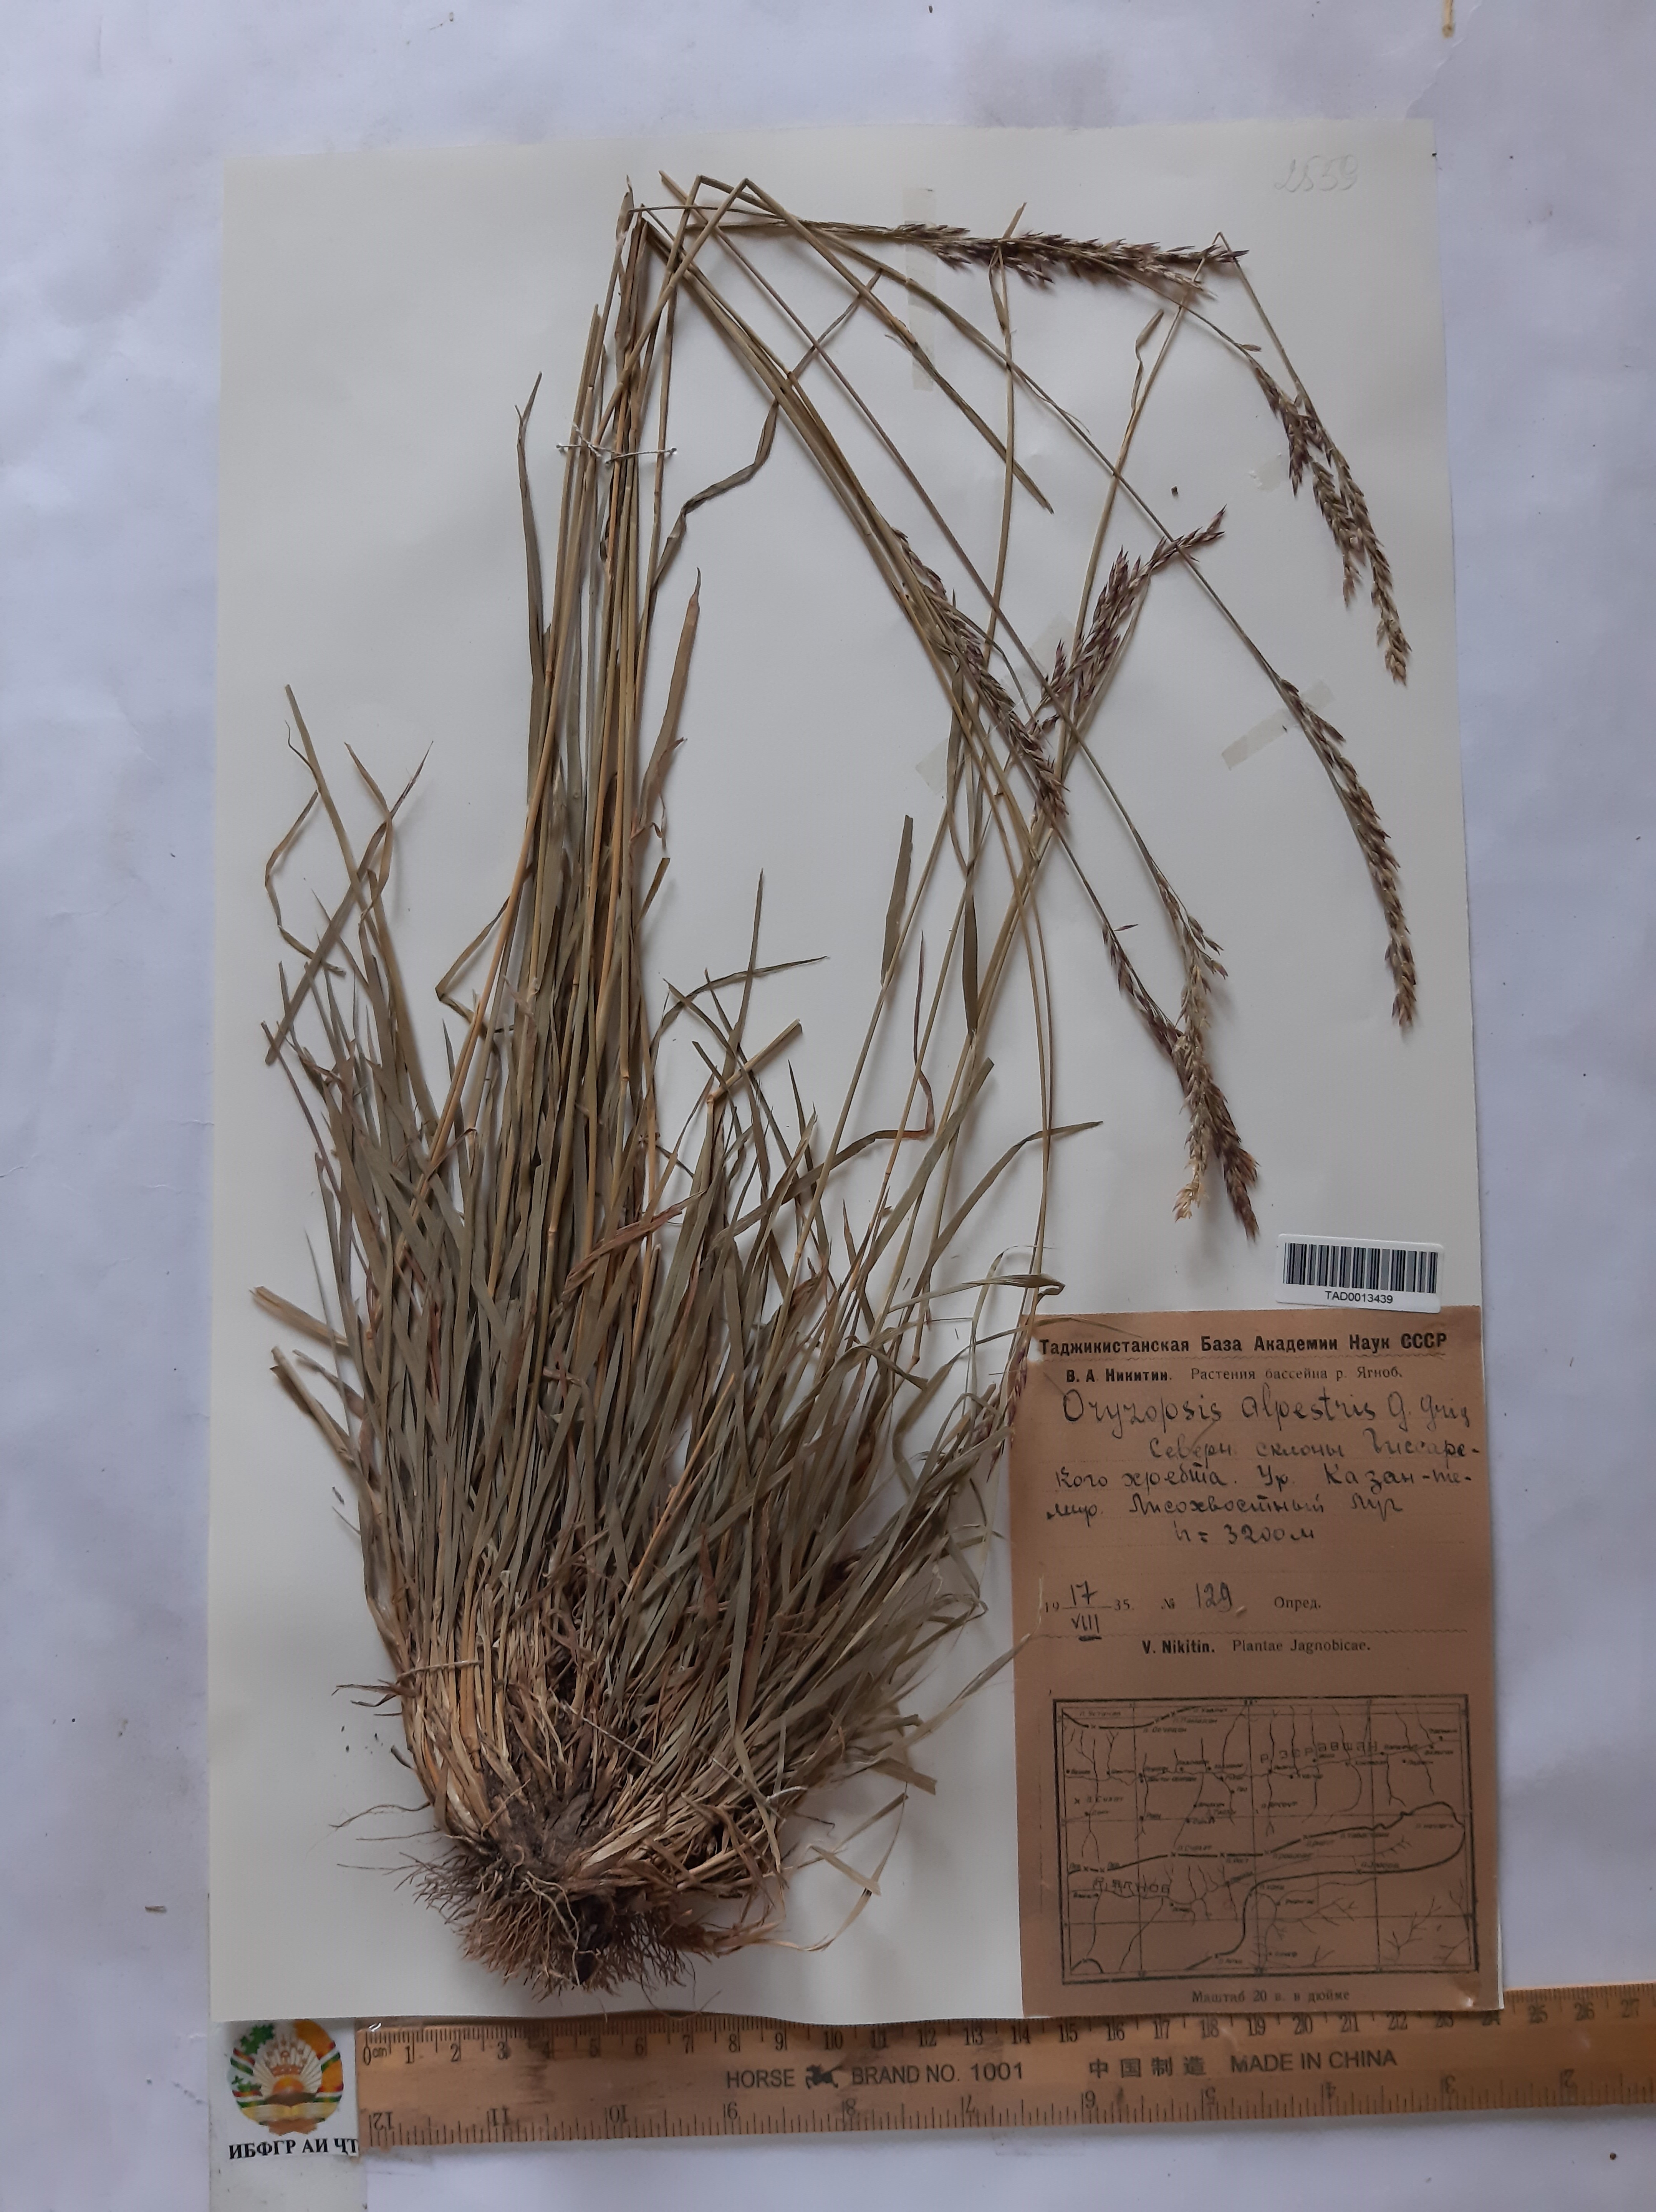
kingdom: Plantae
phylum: Tracheophyta
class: Liliopsida
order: Poales
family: Poaceae
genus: Piptatherum
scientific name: Piptatherum alpestre
